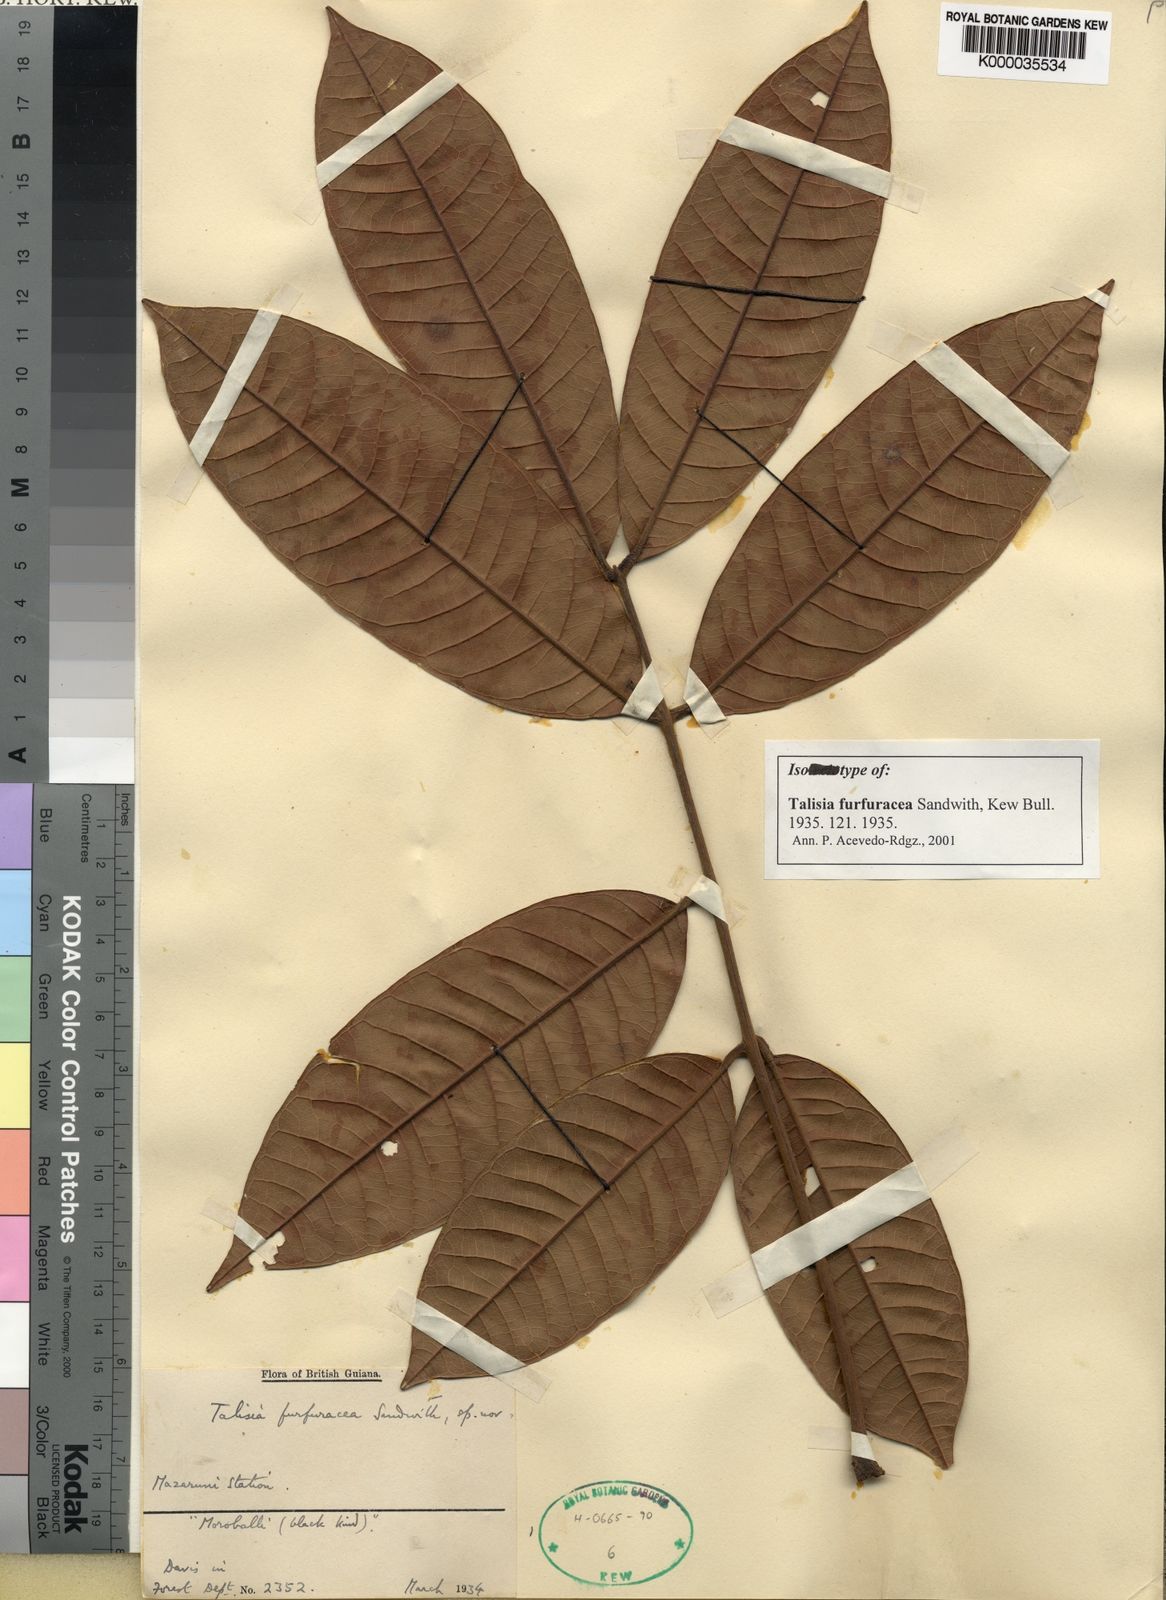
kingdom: Plantae
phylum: Tracheophyta
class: Magnoliopsida
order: Sapindales
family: Sapindaceae
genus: Talisia
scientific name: Talisia furfuracea
